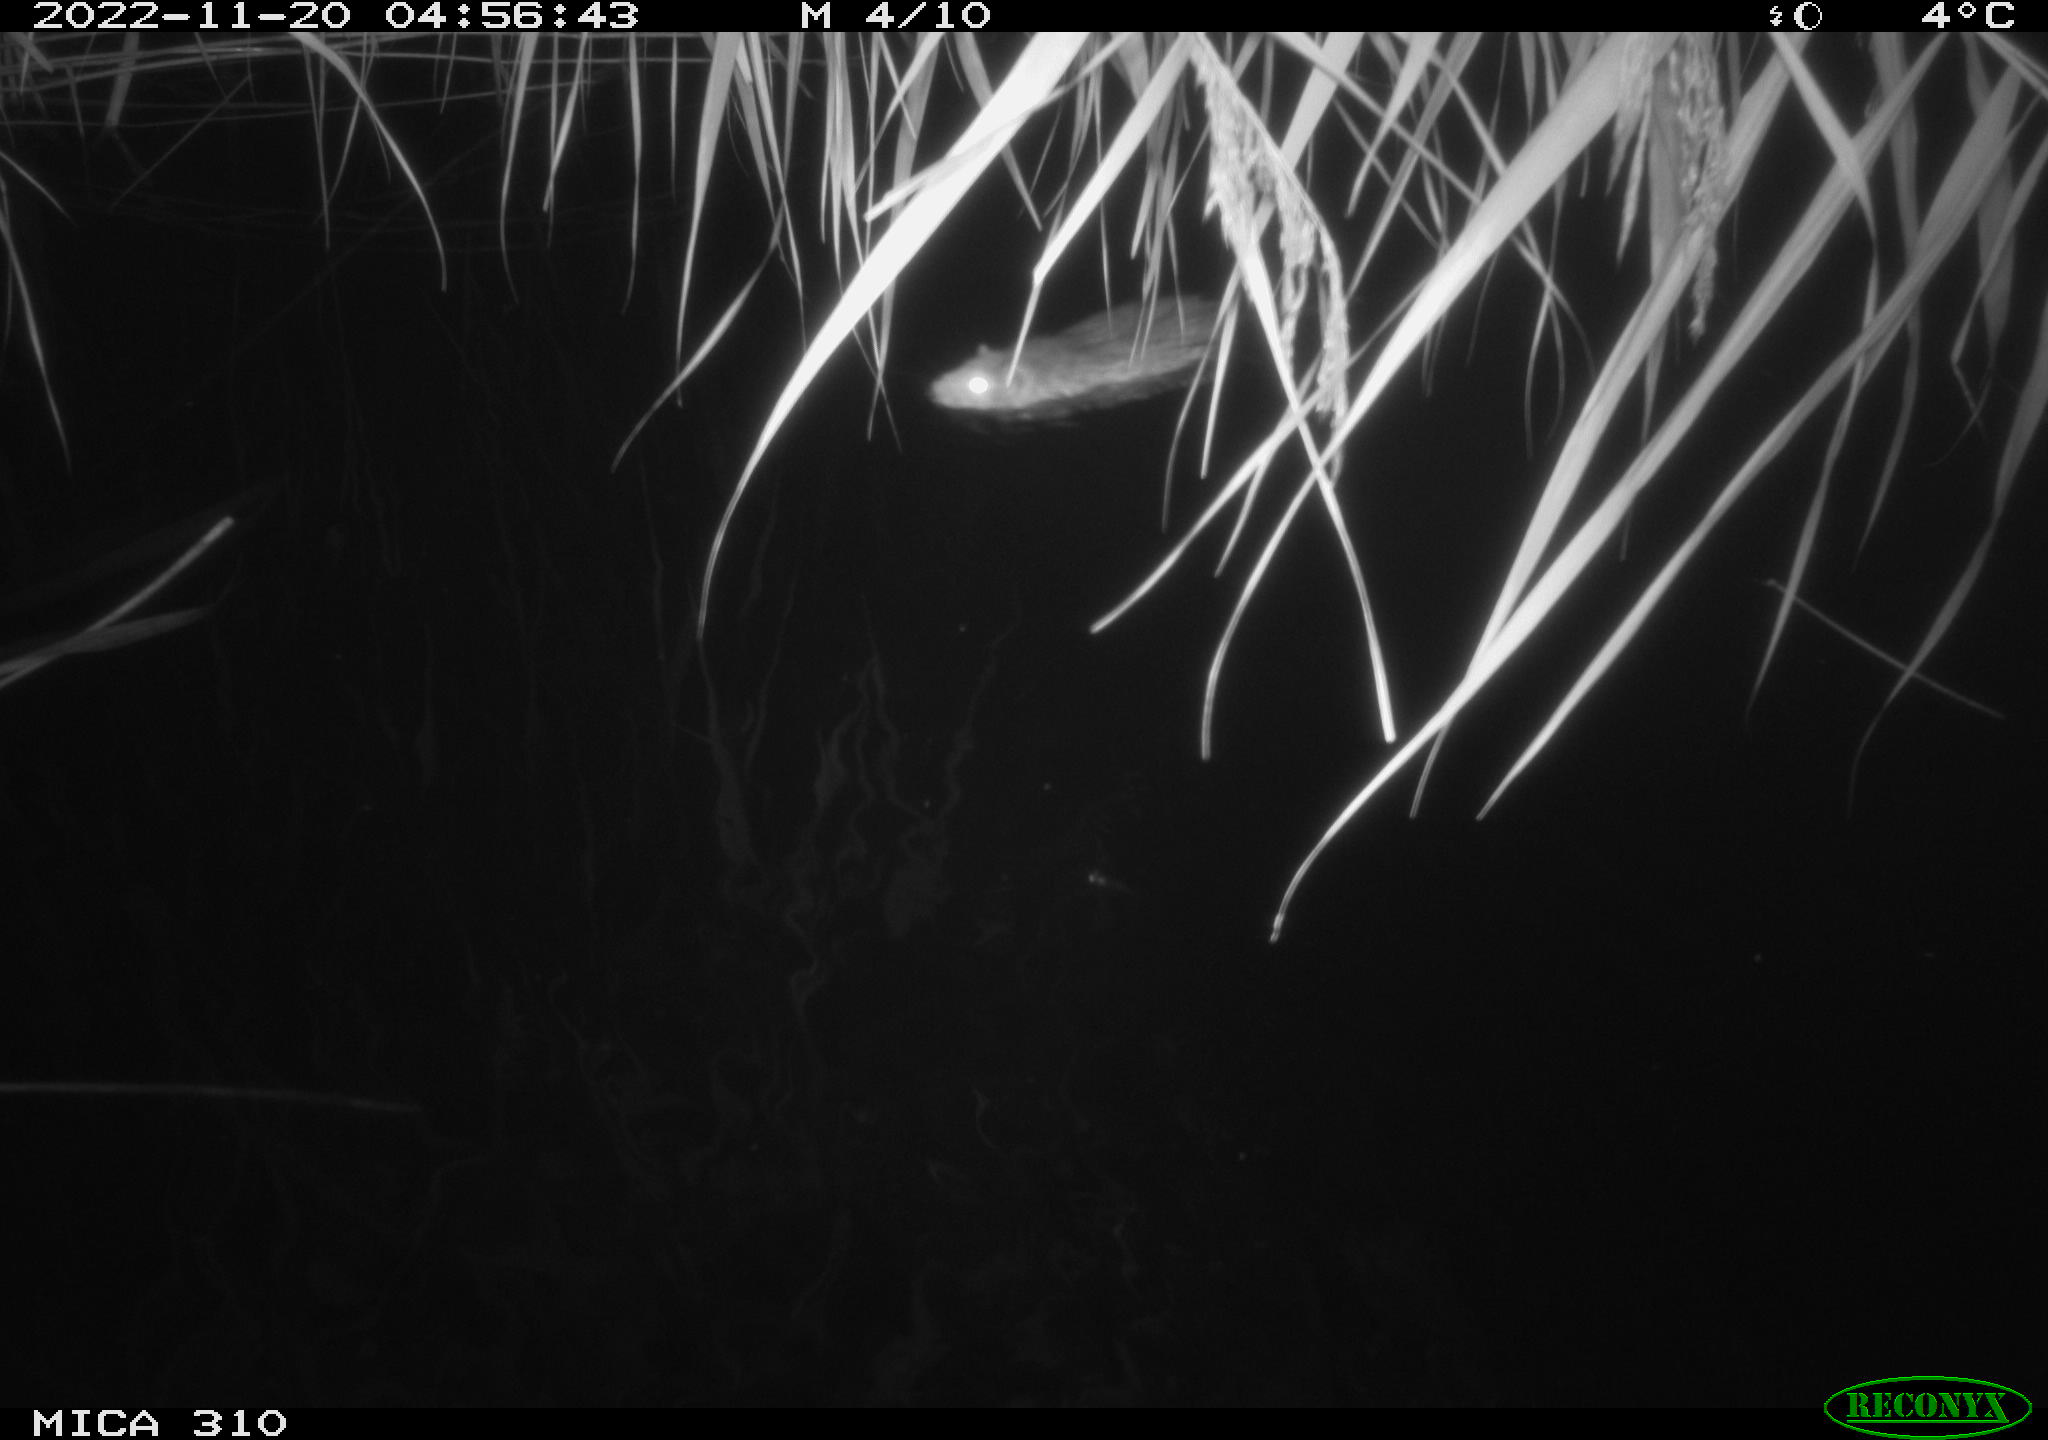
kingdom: Animalia
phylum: Chordata
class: Mammalia
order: Rodentia
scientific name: Rodentia
